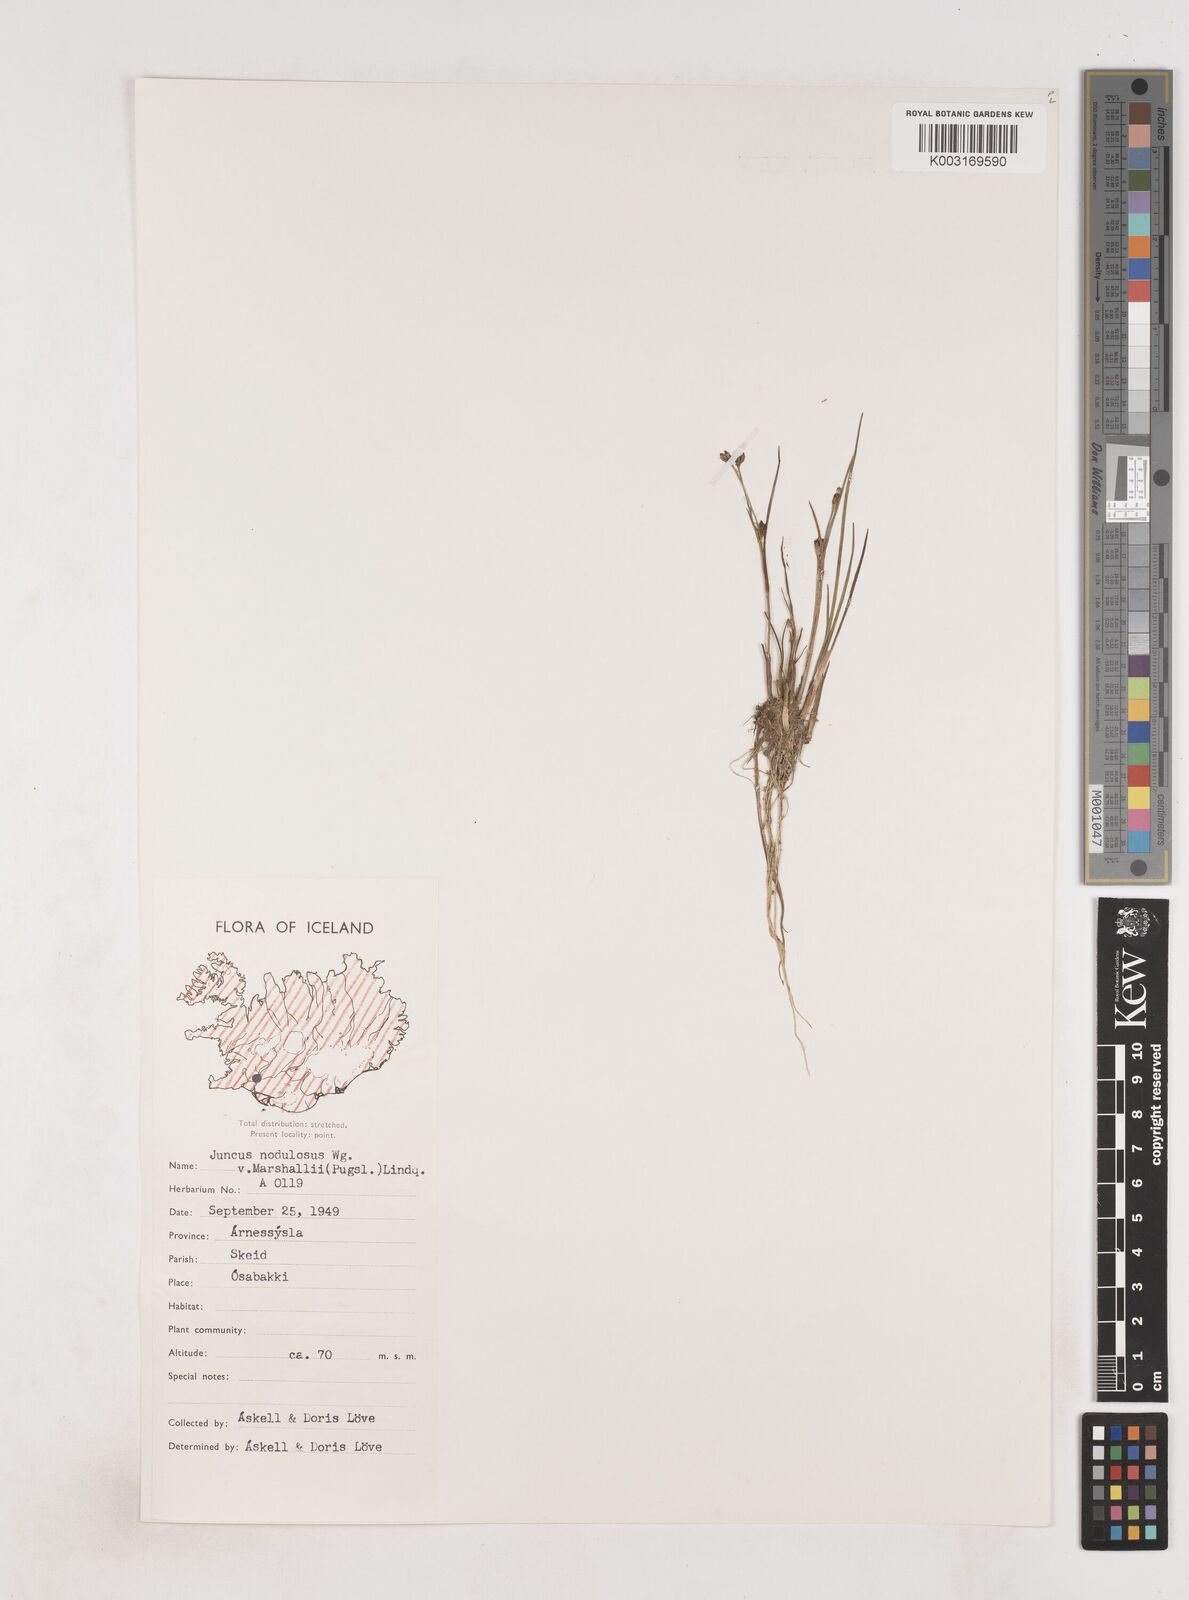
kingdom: Plantae
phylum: Tracheophyta
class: Liliopsida
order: Poales
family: Juncaceae
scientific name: Juncaceae
